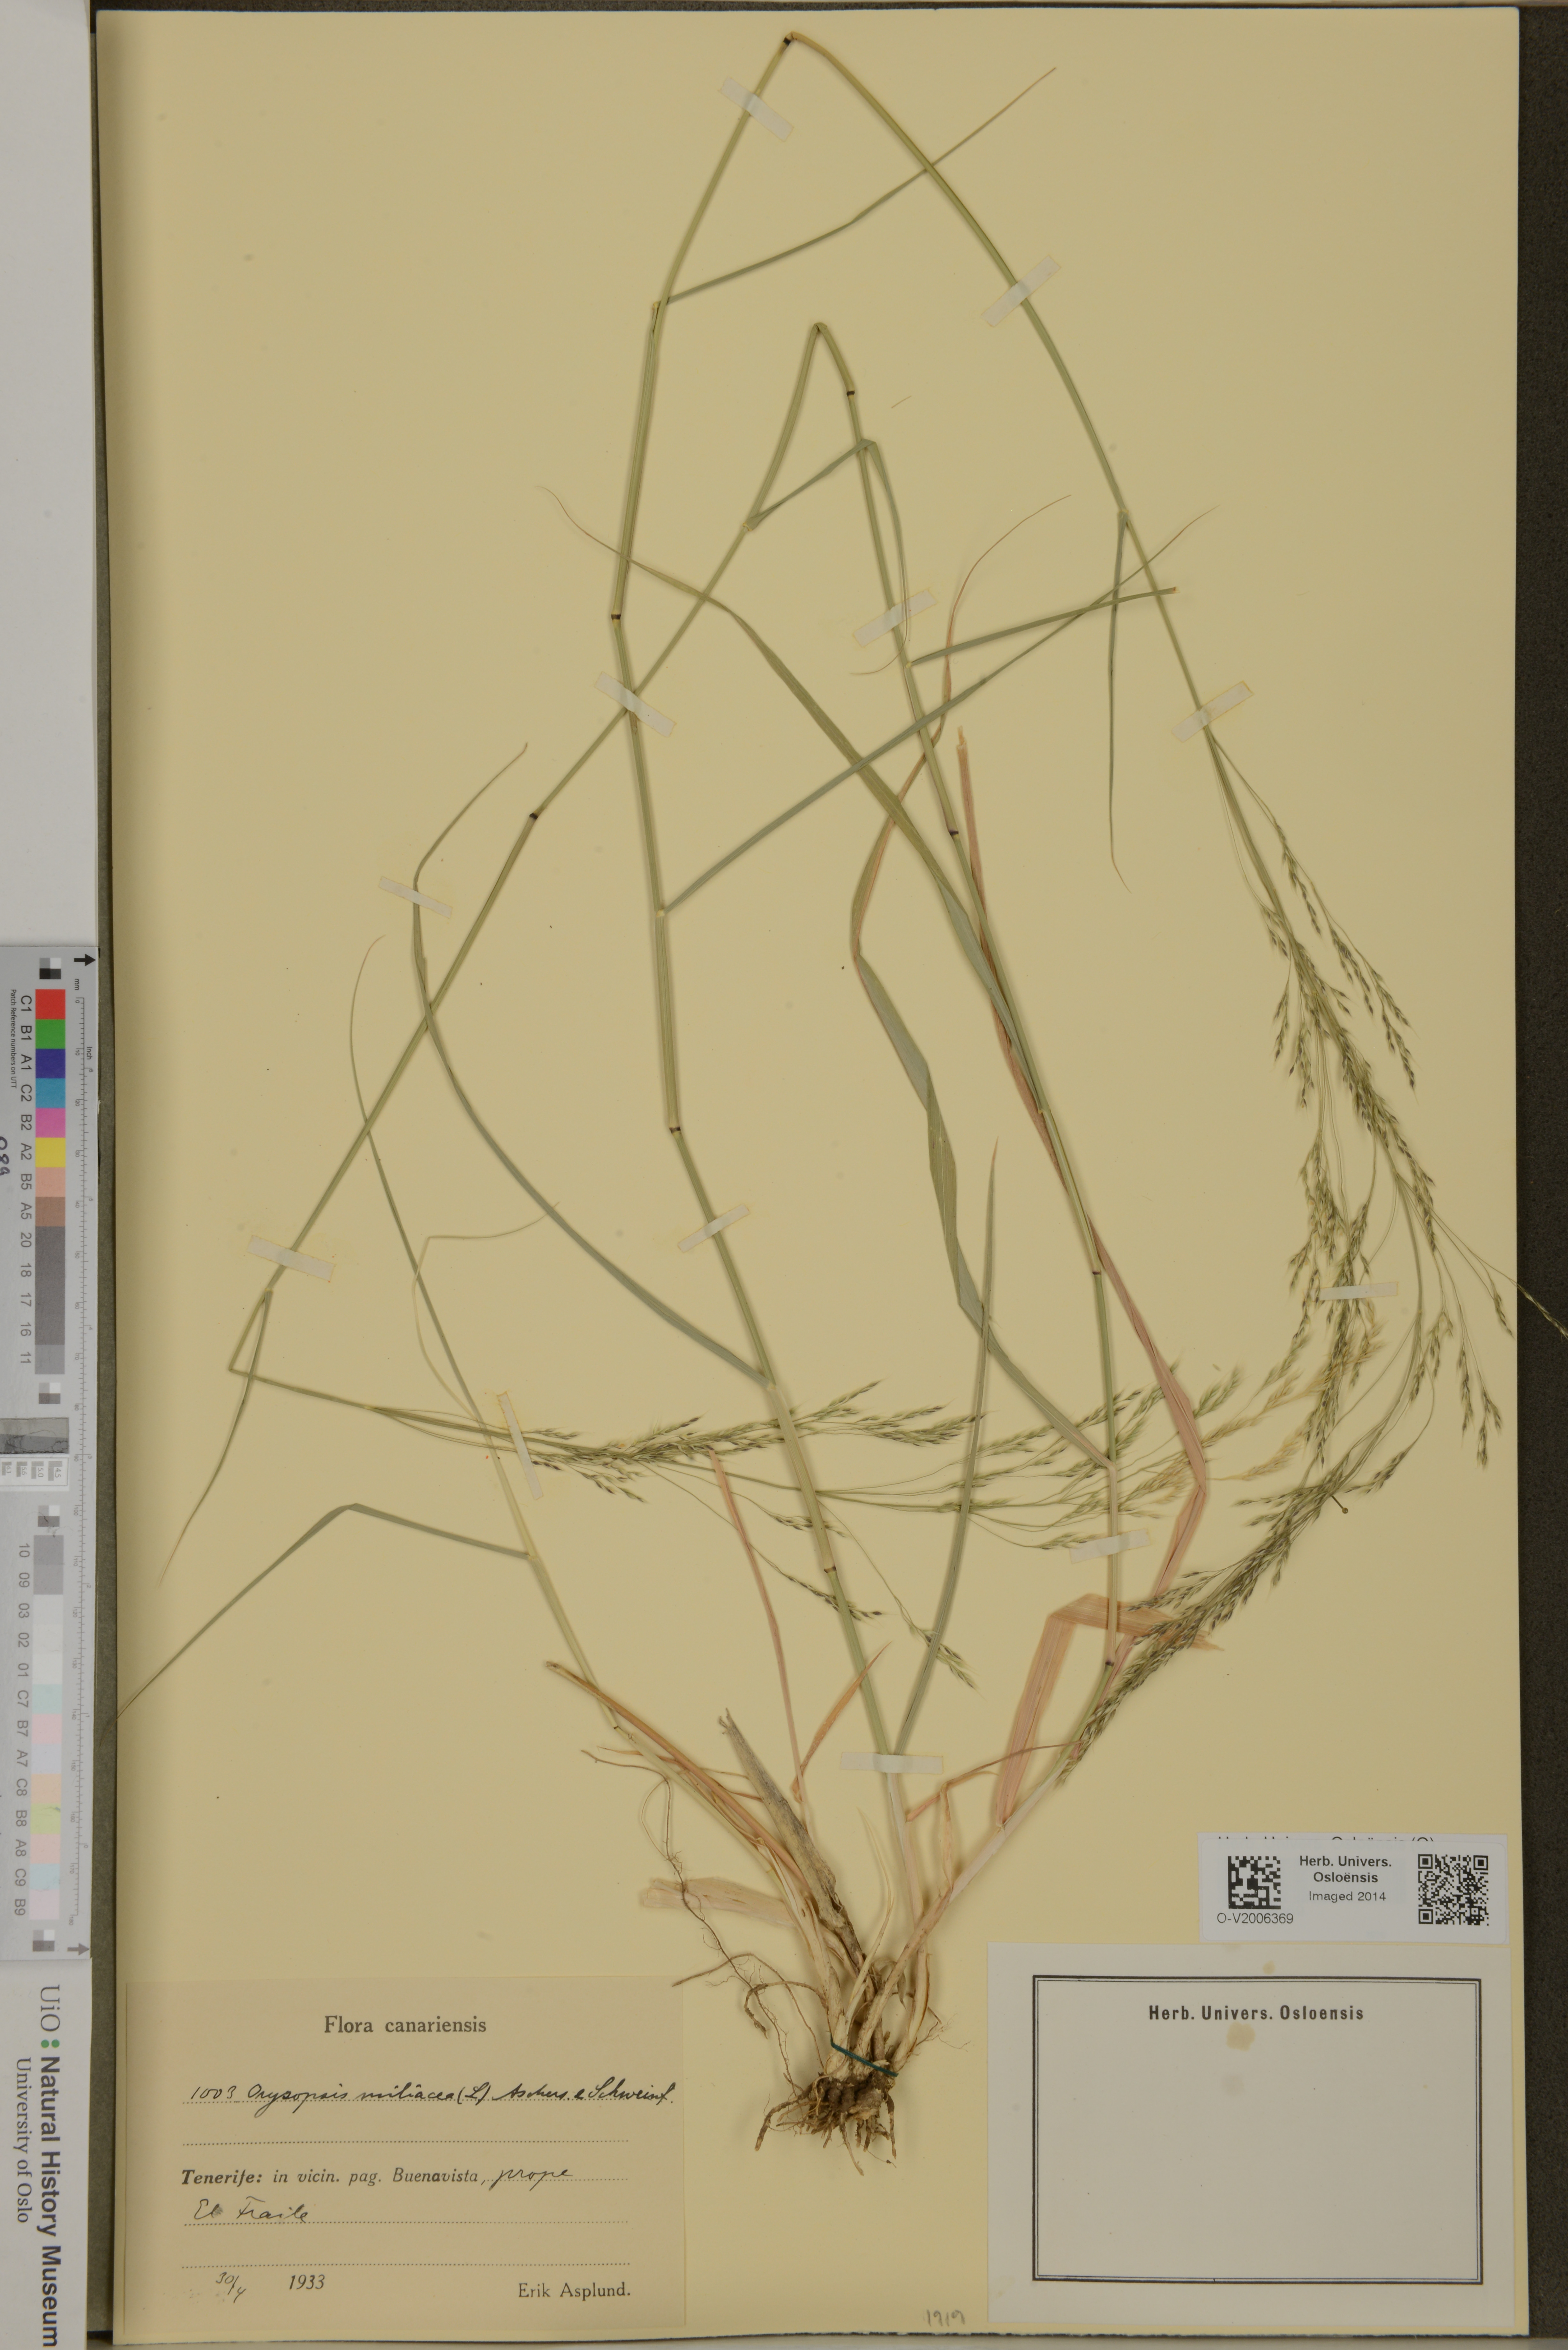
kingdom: Plantae
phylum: Tracheophyta
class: Liliopsida
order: Poales
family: Poaceae
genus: Oloptum
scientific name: Oloptum miliaceum
